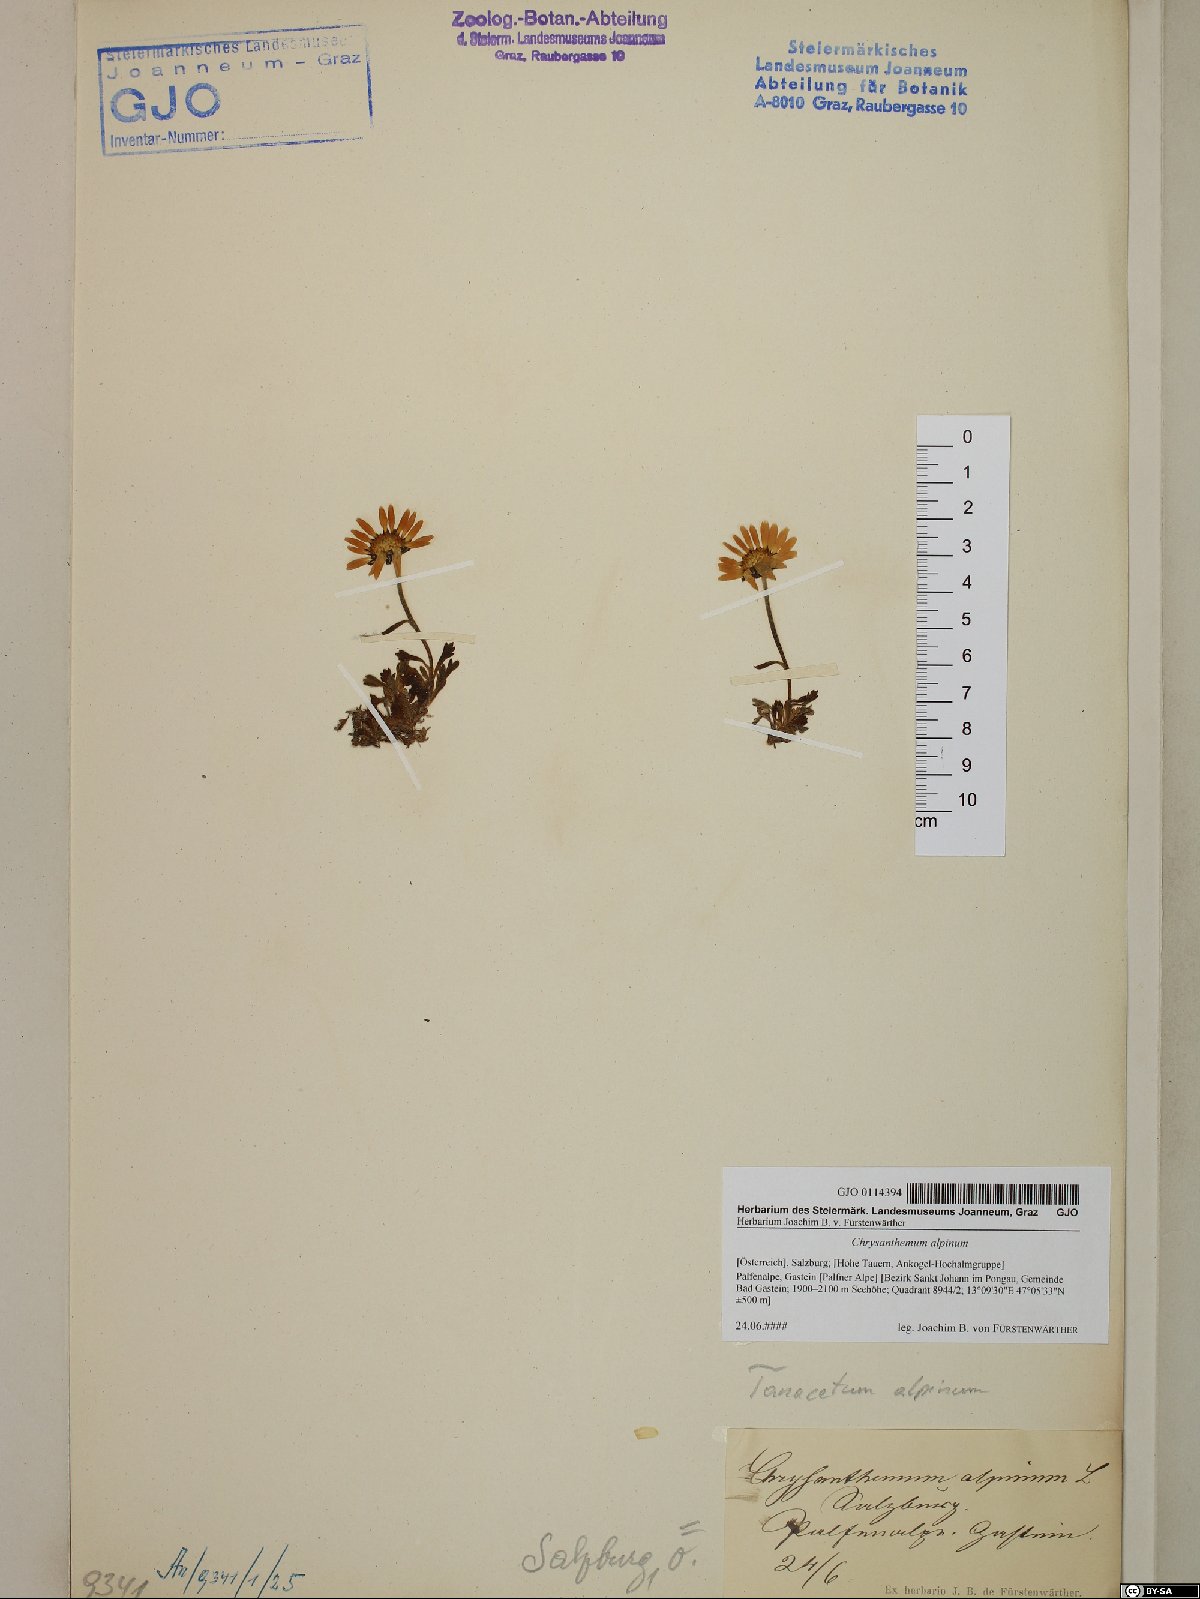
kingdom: Plantae
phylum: Tracheophyta
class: Magnoliopsida
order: Asterales
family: Asteraceae
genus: Leucanthemopsis
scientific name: Leucanthemopsis alpina
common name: Alpine moon daisy
